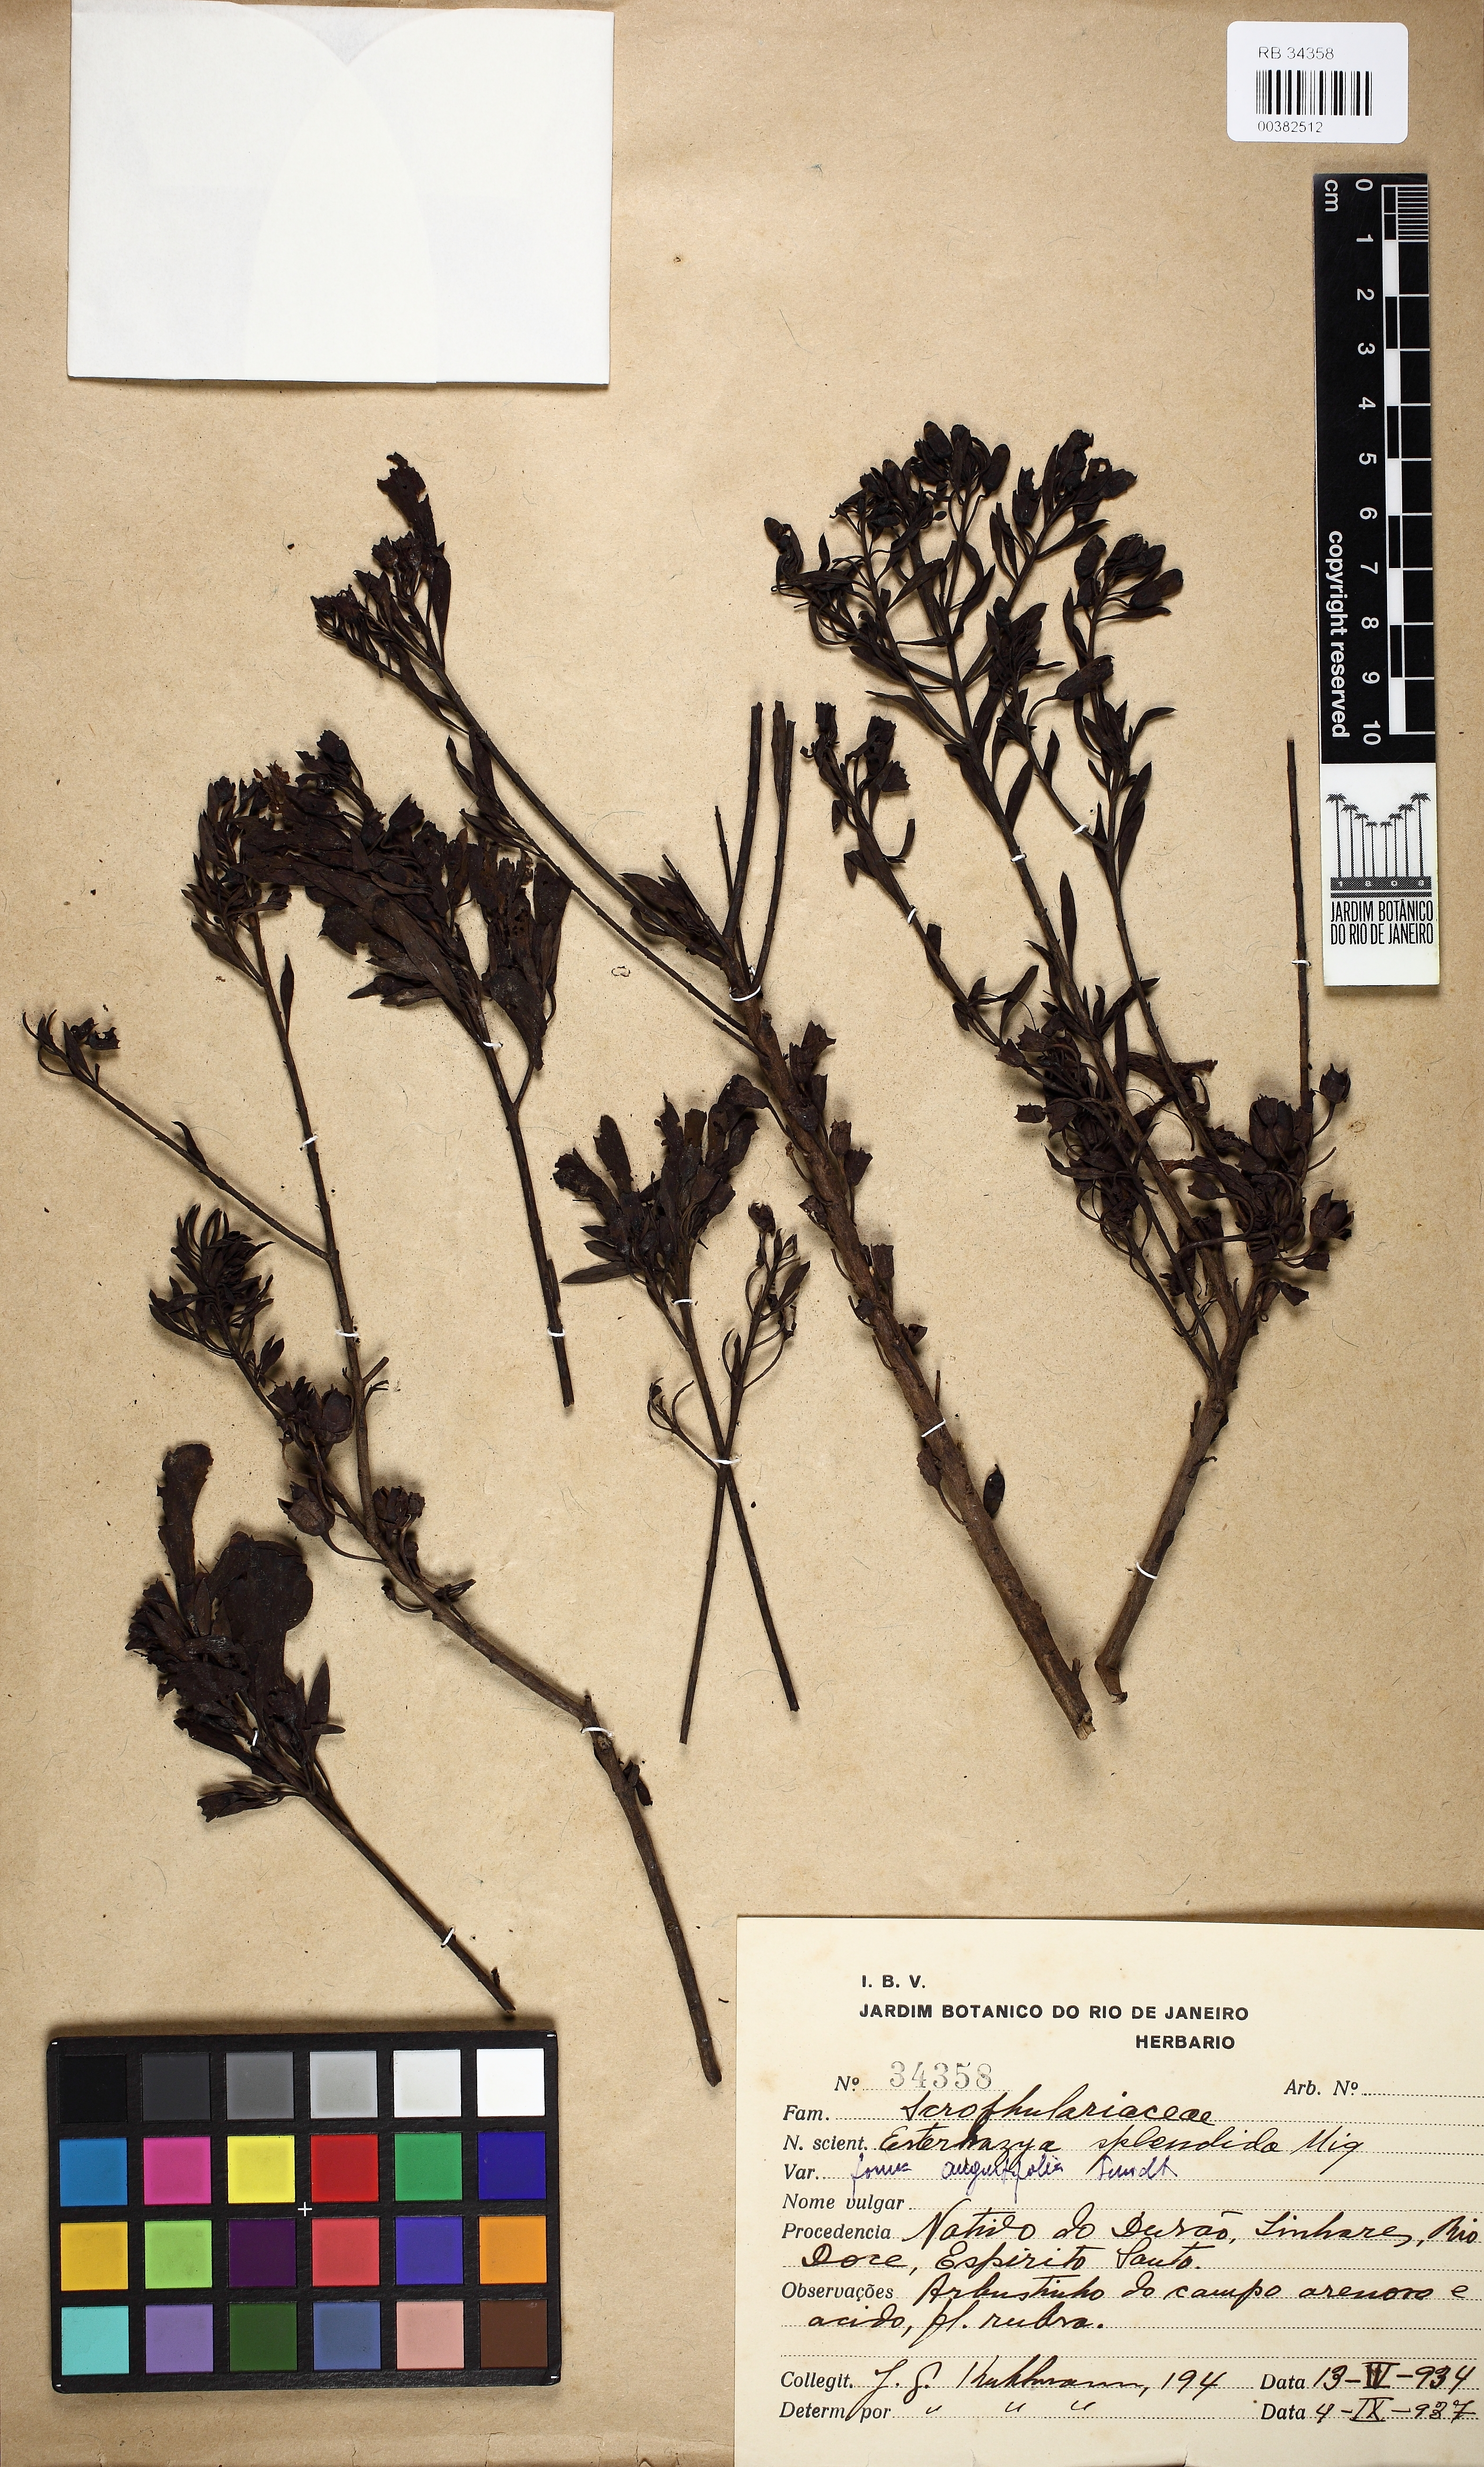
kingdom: Plantae
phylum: Tracheophyta
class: Magnoliopsida
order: Lamiales
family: Orobanchaceae
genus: Esterhazya
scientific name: Esterhazya splendida
